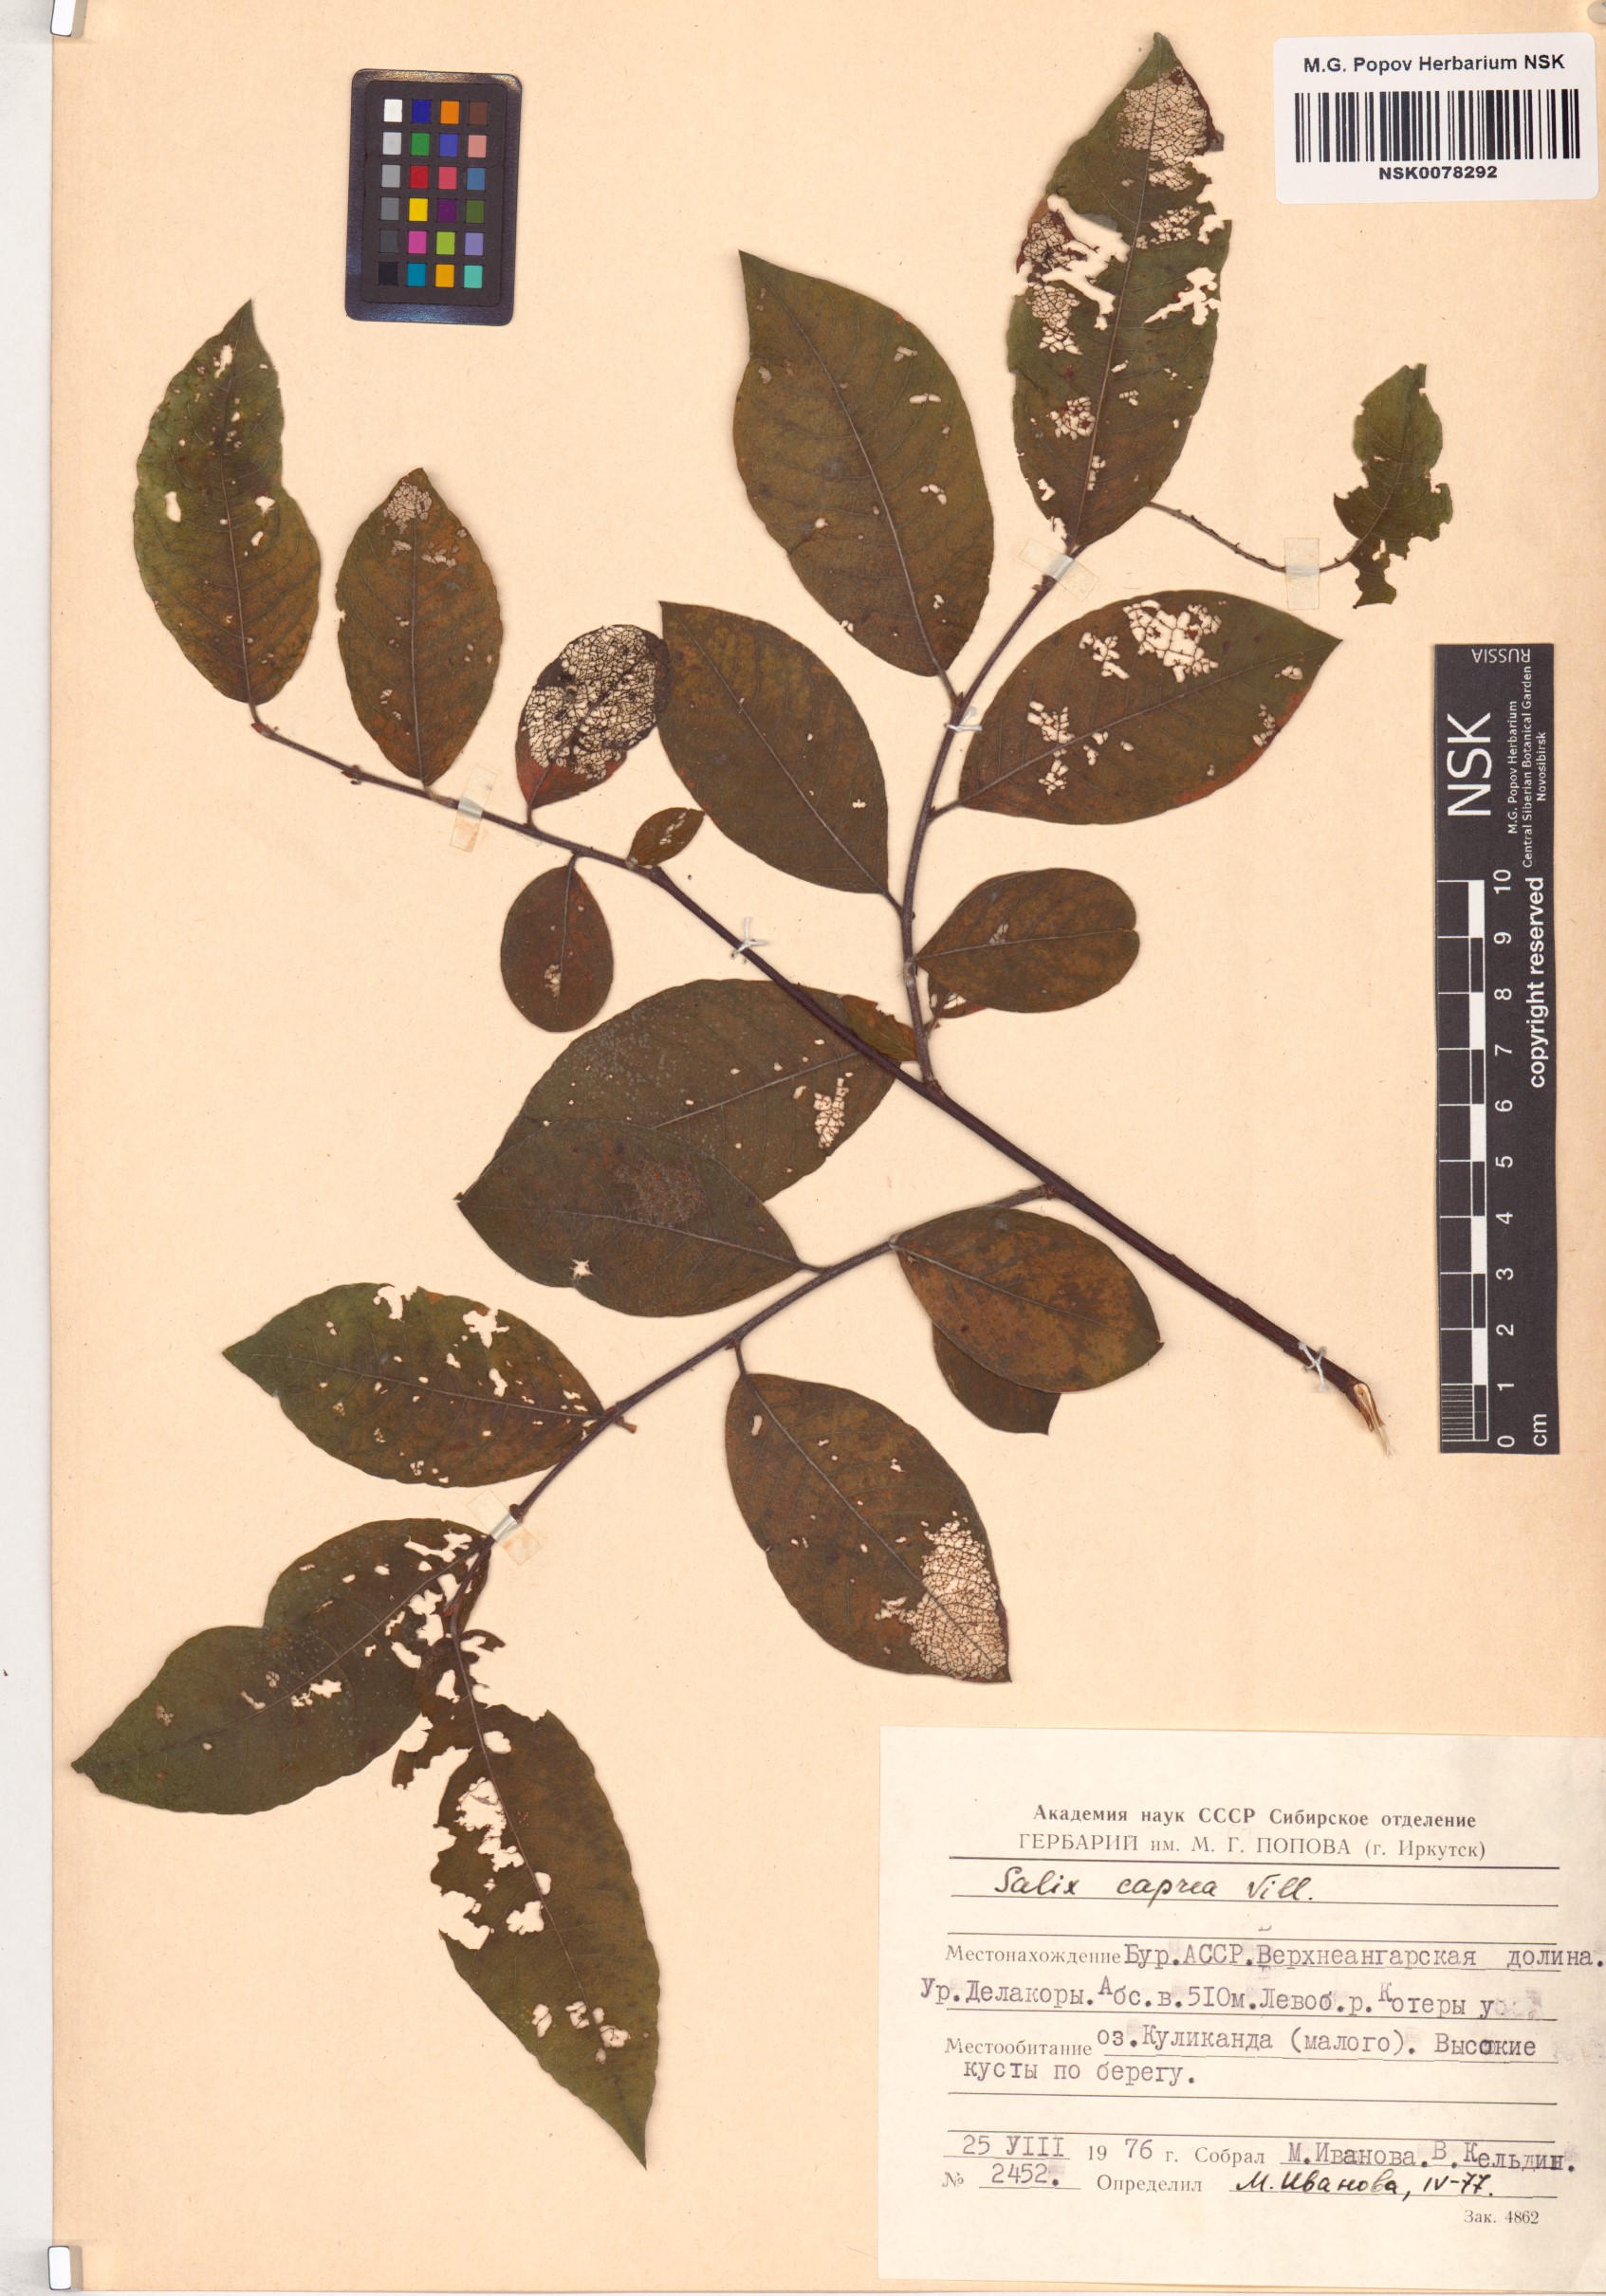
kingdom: Plantae
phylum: Tracheophyta
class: Magnoliopsida
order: Malpighiales
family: Salicaceae
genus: Salix
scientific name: Salix caprea
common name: Goat willow
